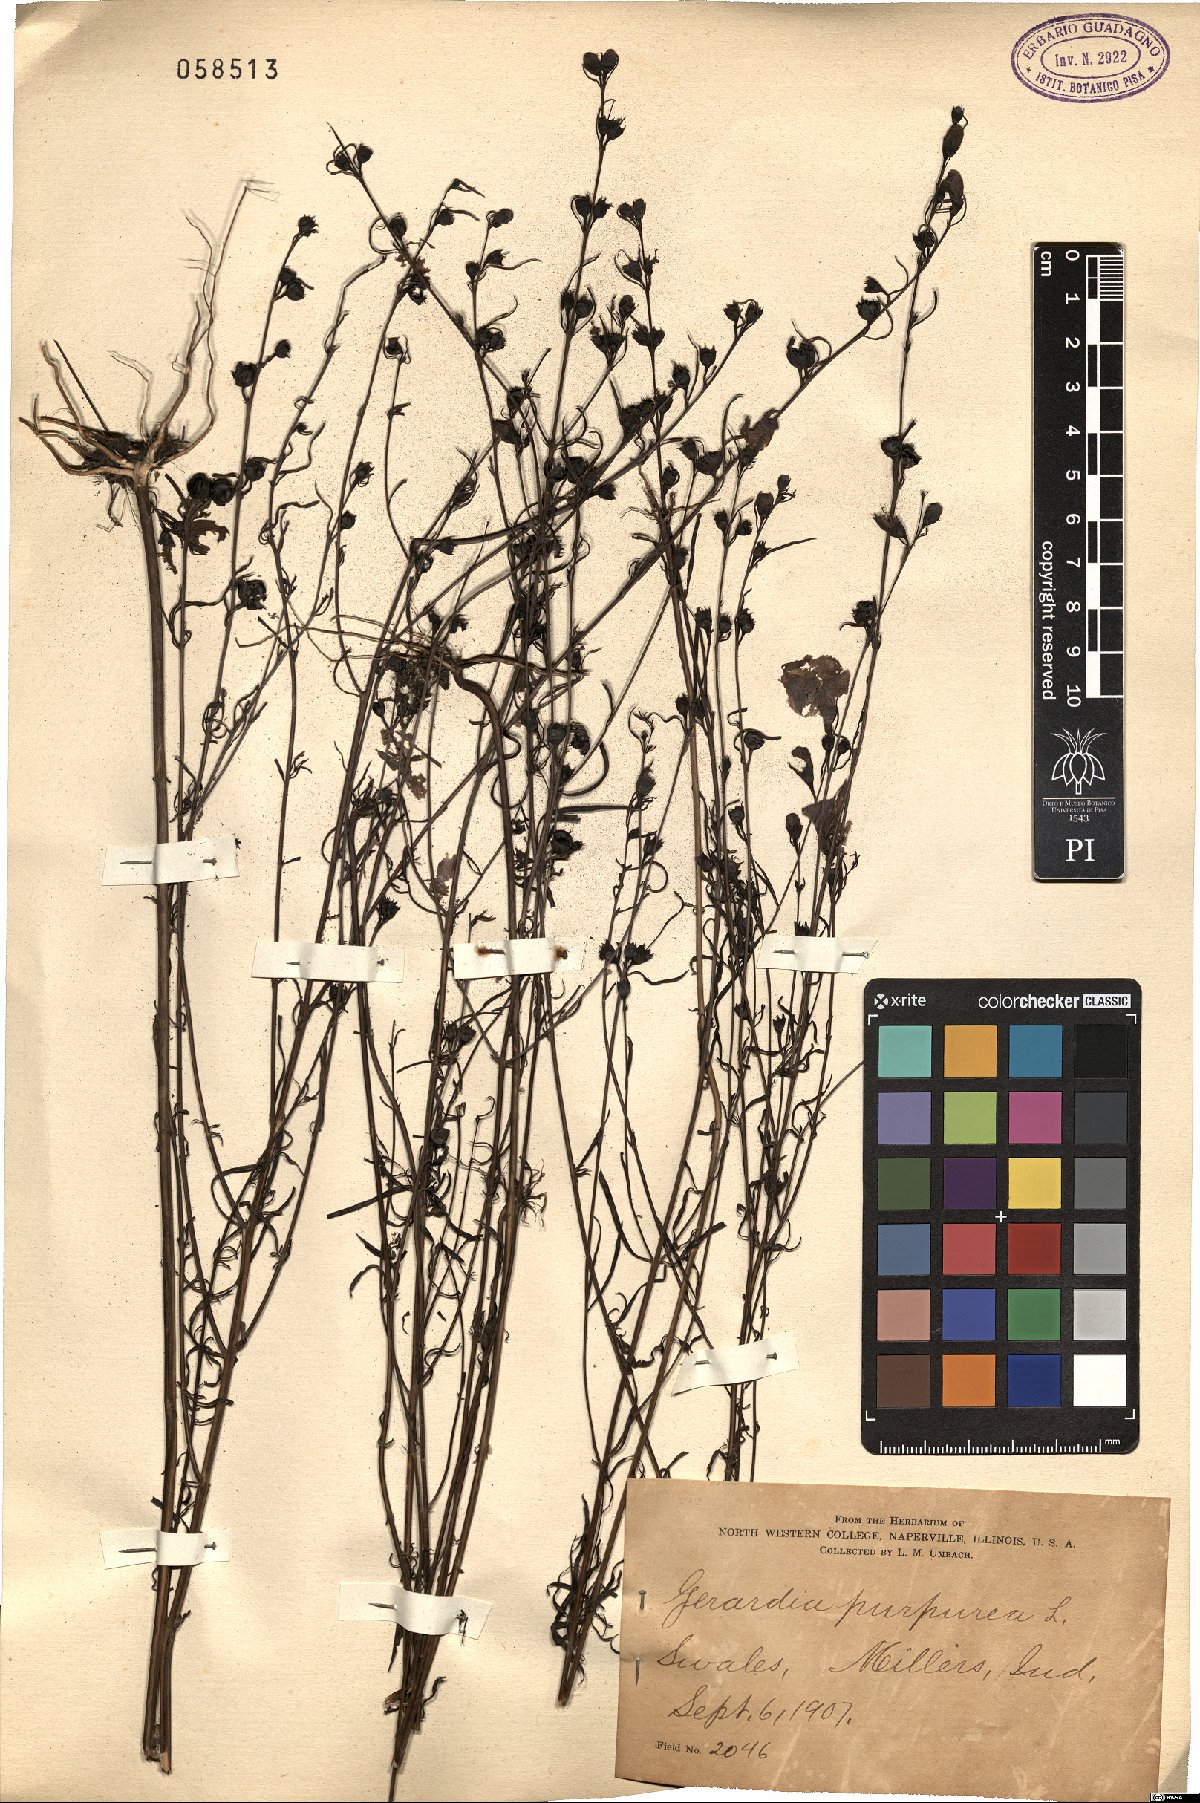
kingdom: Plantae
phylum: Tracheophyta
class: Magnoliopsida
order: Lamiales
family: Orobanchaceae
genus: Agalinis
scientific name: Agalinis purpurea
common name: Purple false foxglove
